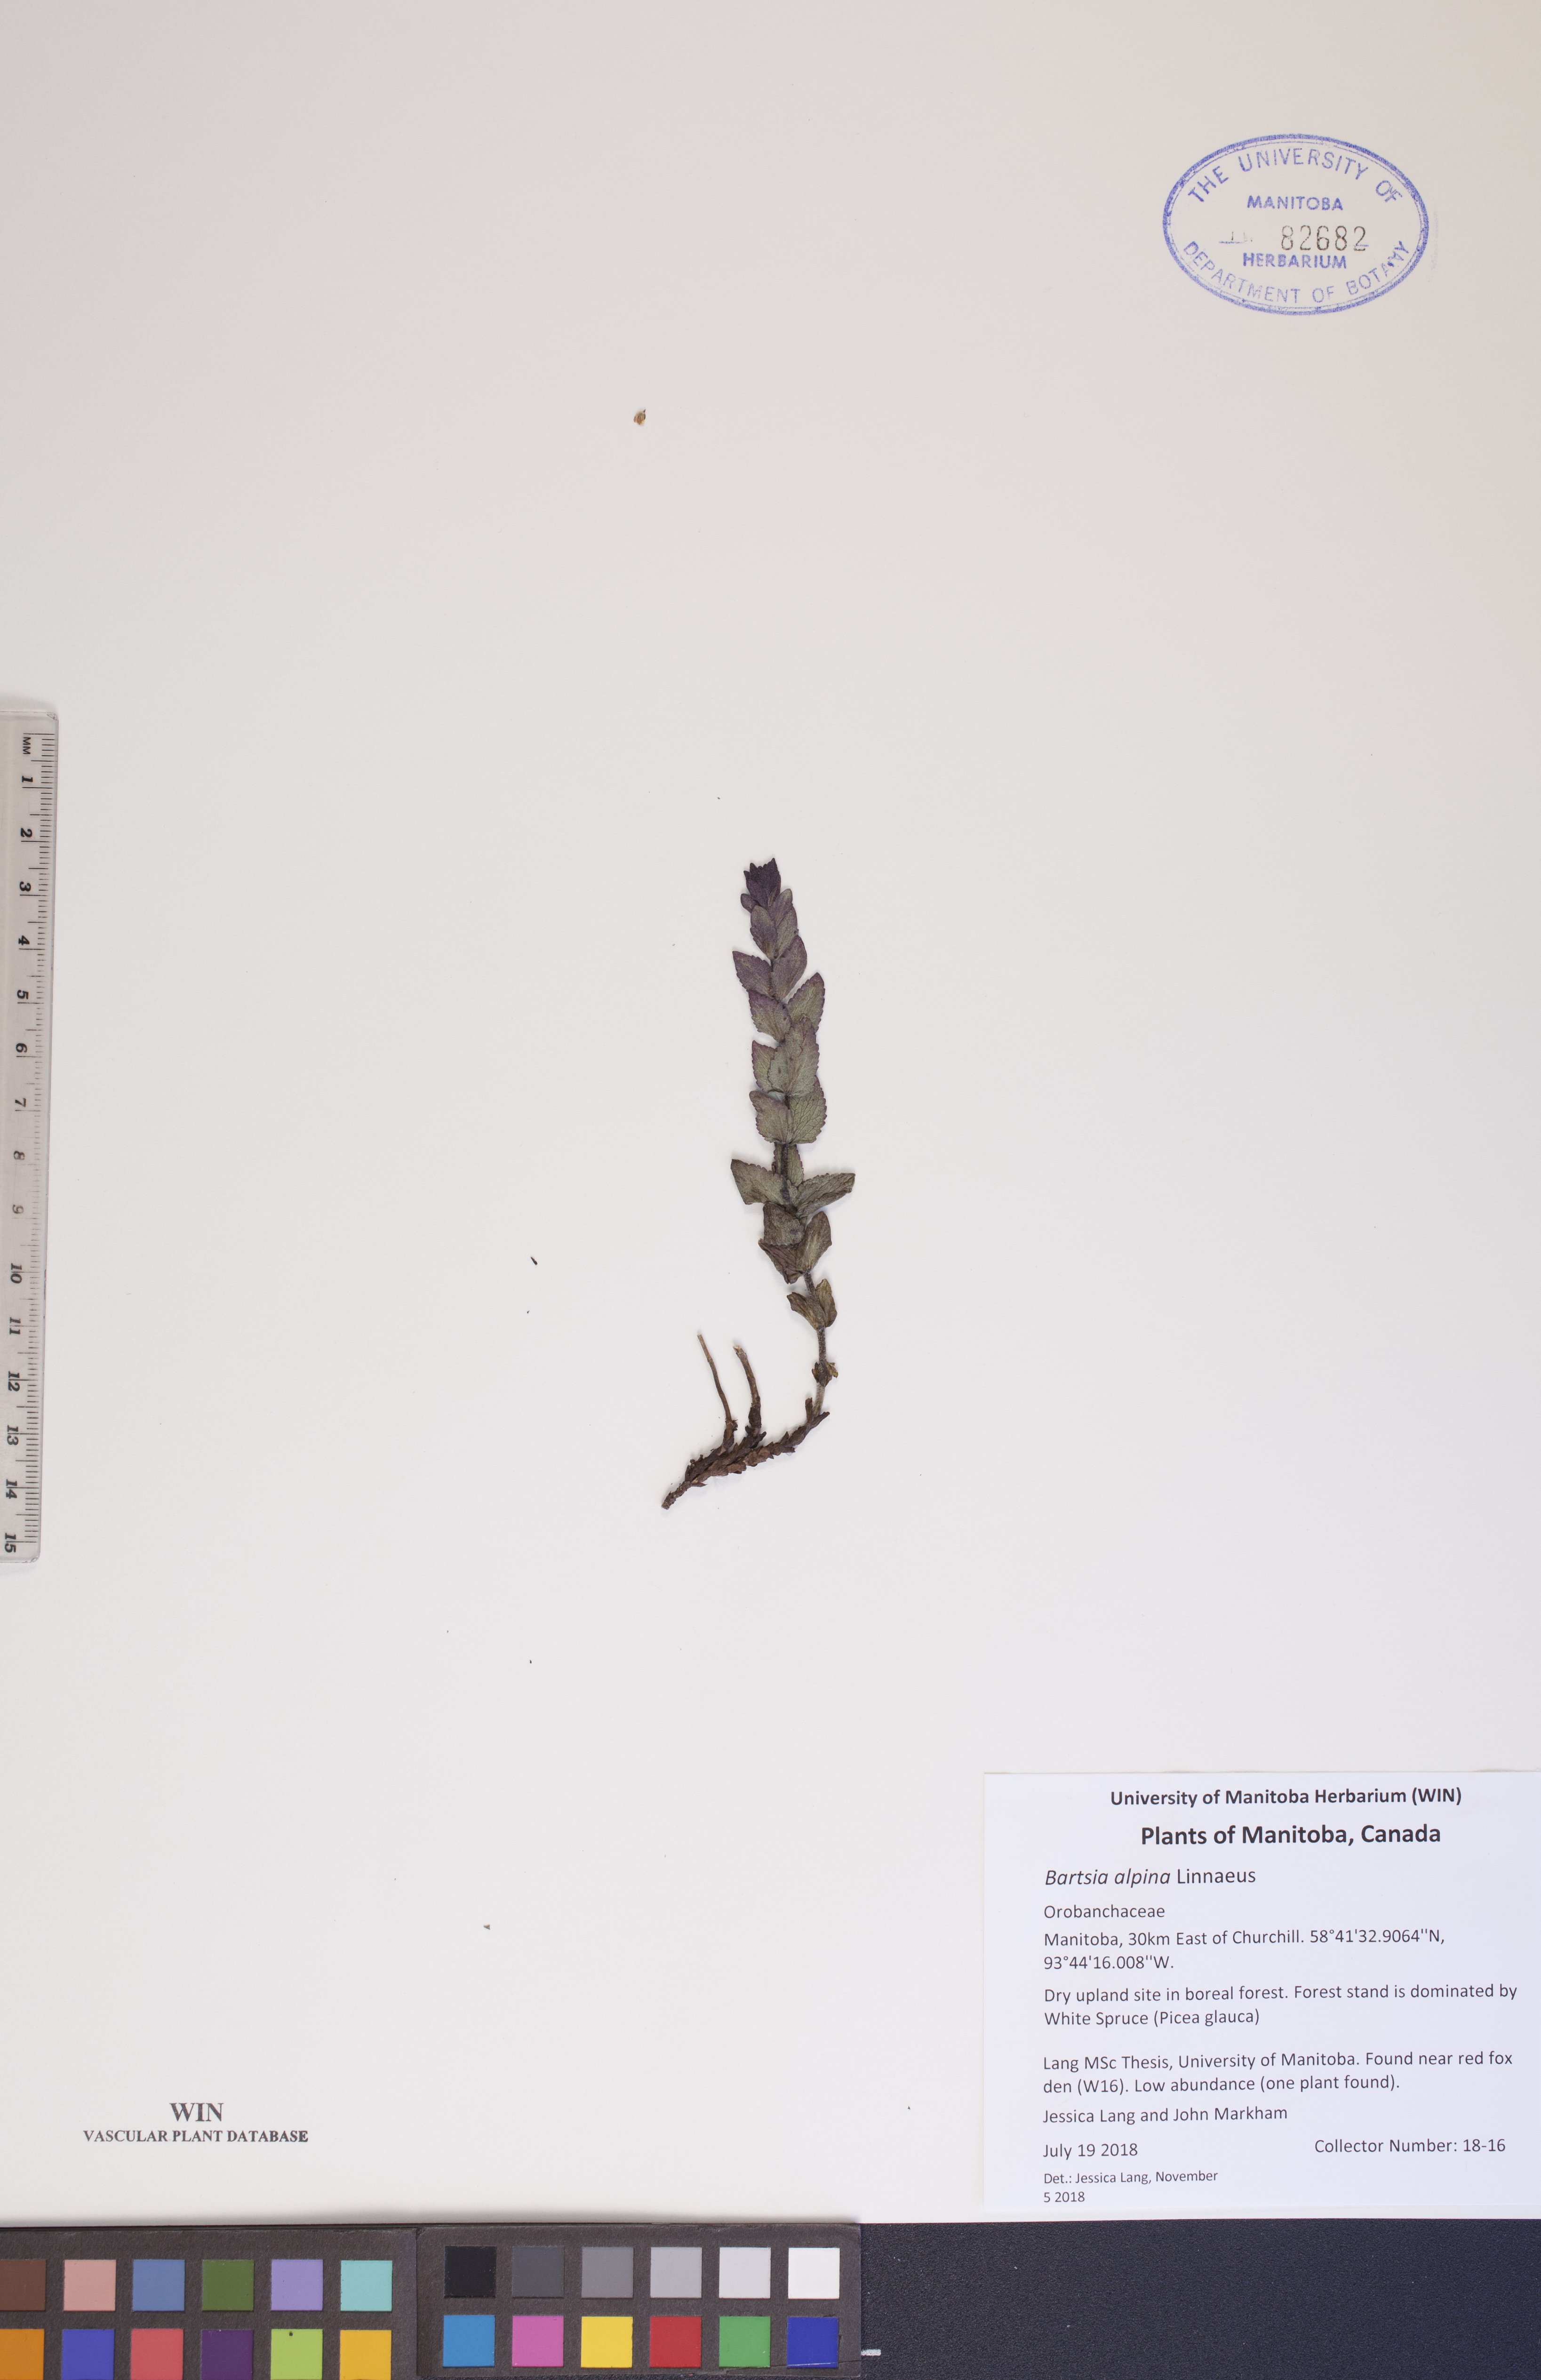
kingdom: Plantae
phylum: Tracheophyta
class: Magnoliopsida
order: Lamiales
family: Orobanchaceae
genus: Bartsia
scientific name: Bartsia alpina
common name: Alpine bartsia
